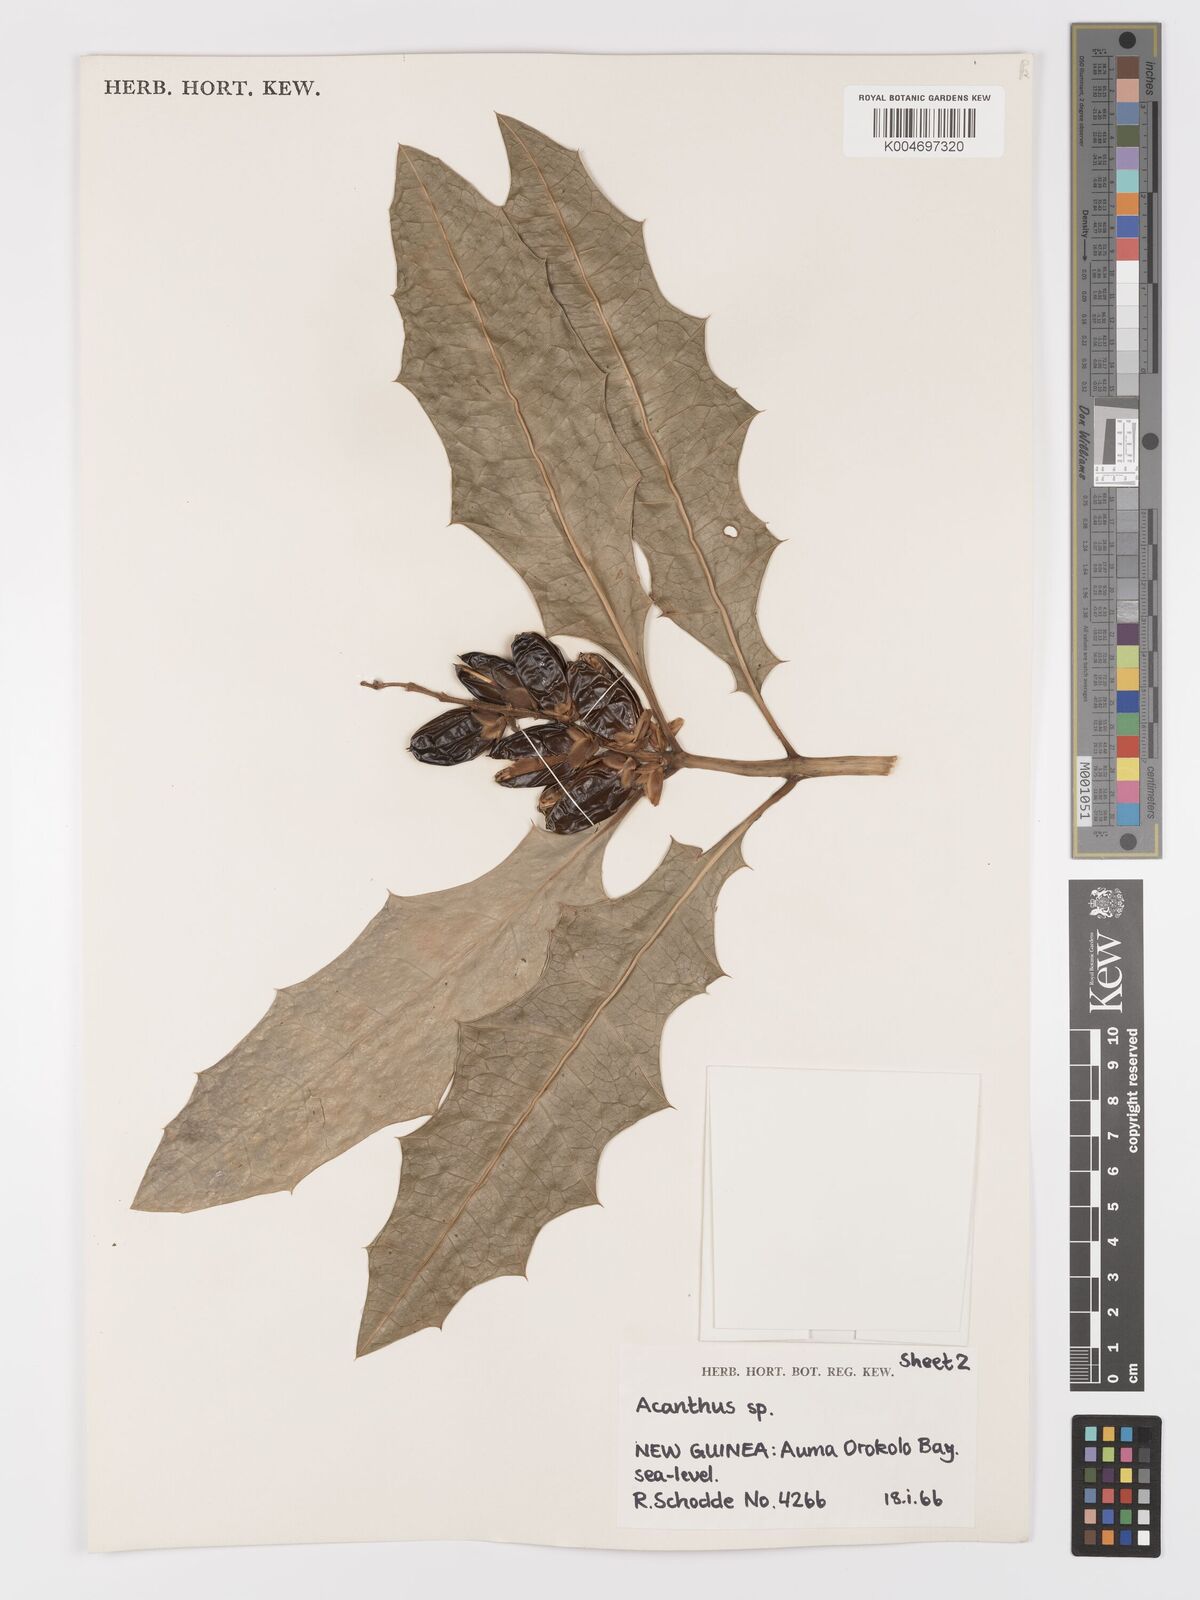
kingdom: Plantae
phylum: Tracheophyta
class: Magnoliopsida
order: Lamiales
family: Acanthaceae
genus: Acanthus
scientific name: Acanthus
